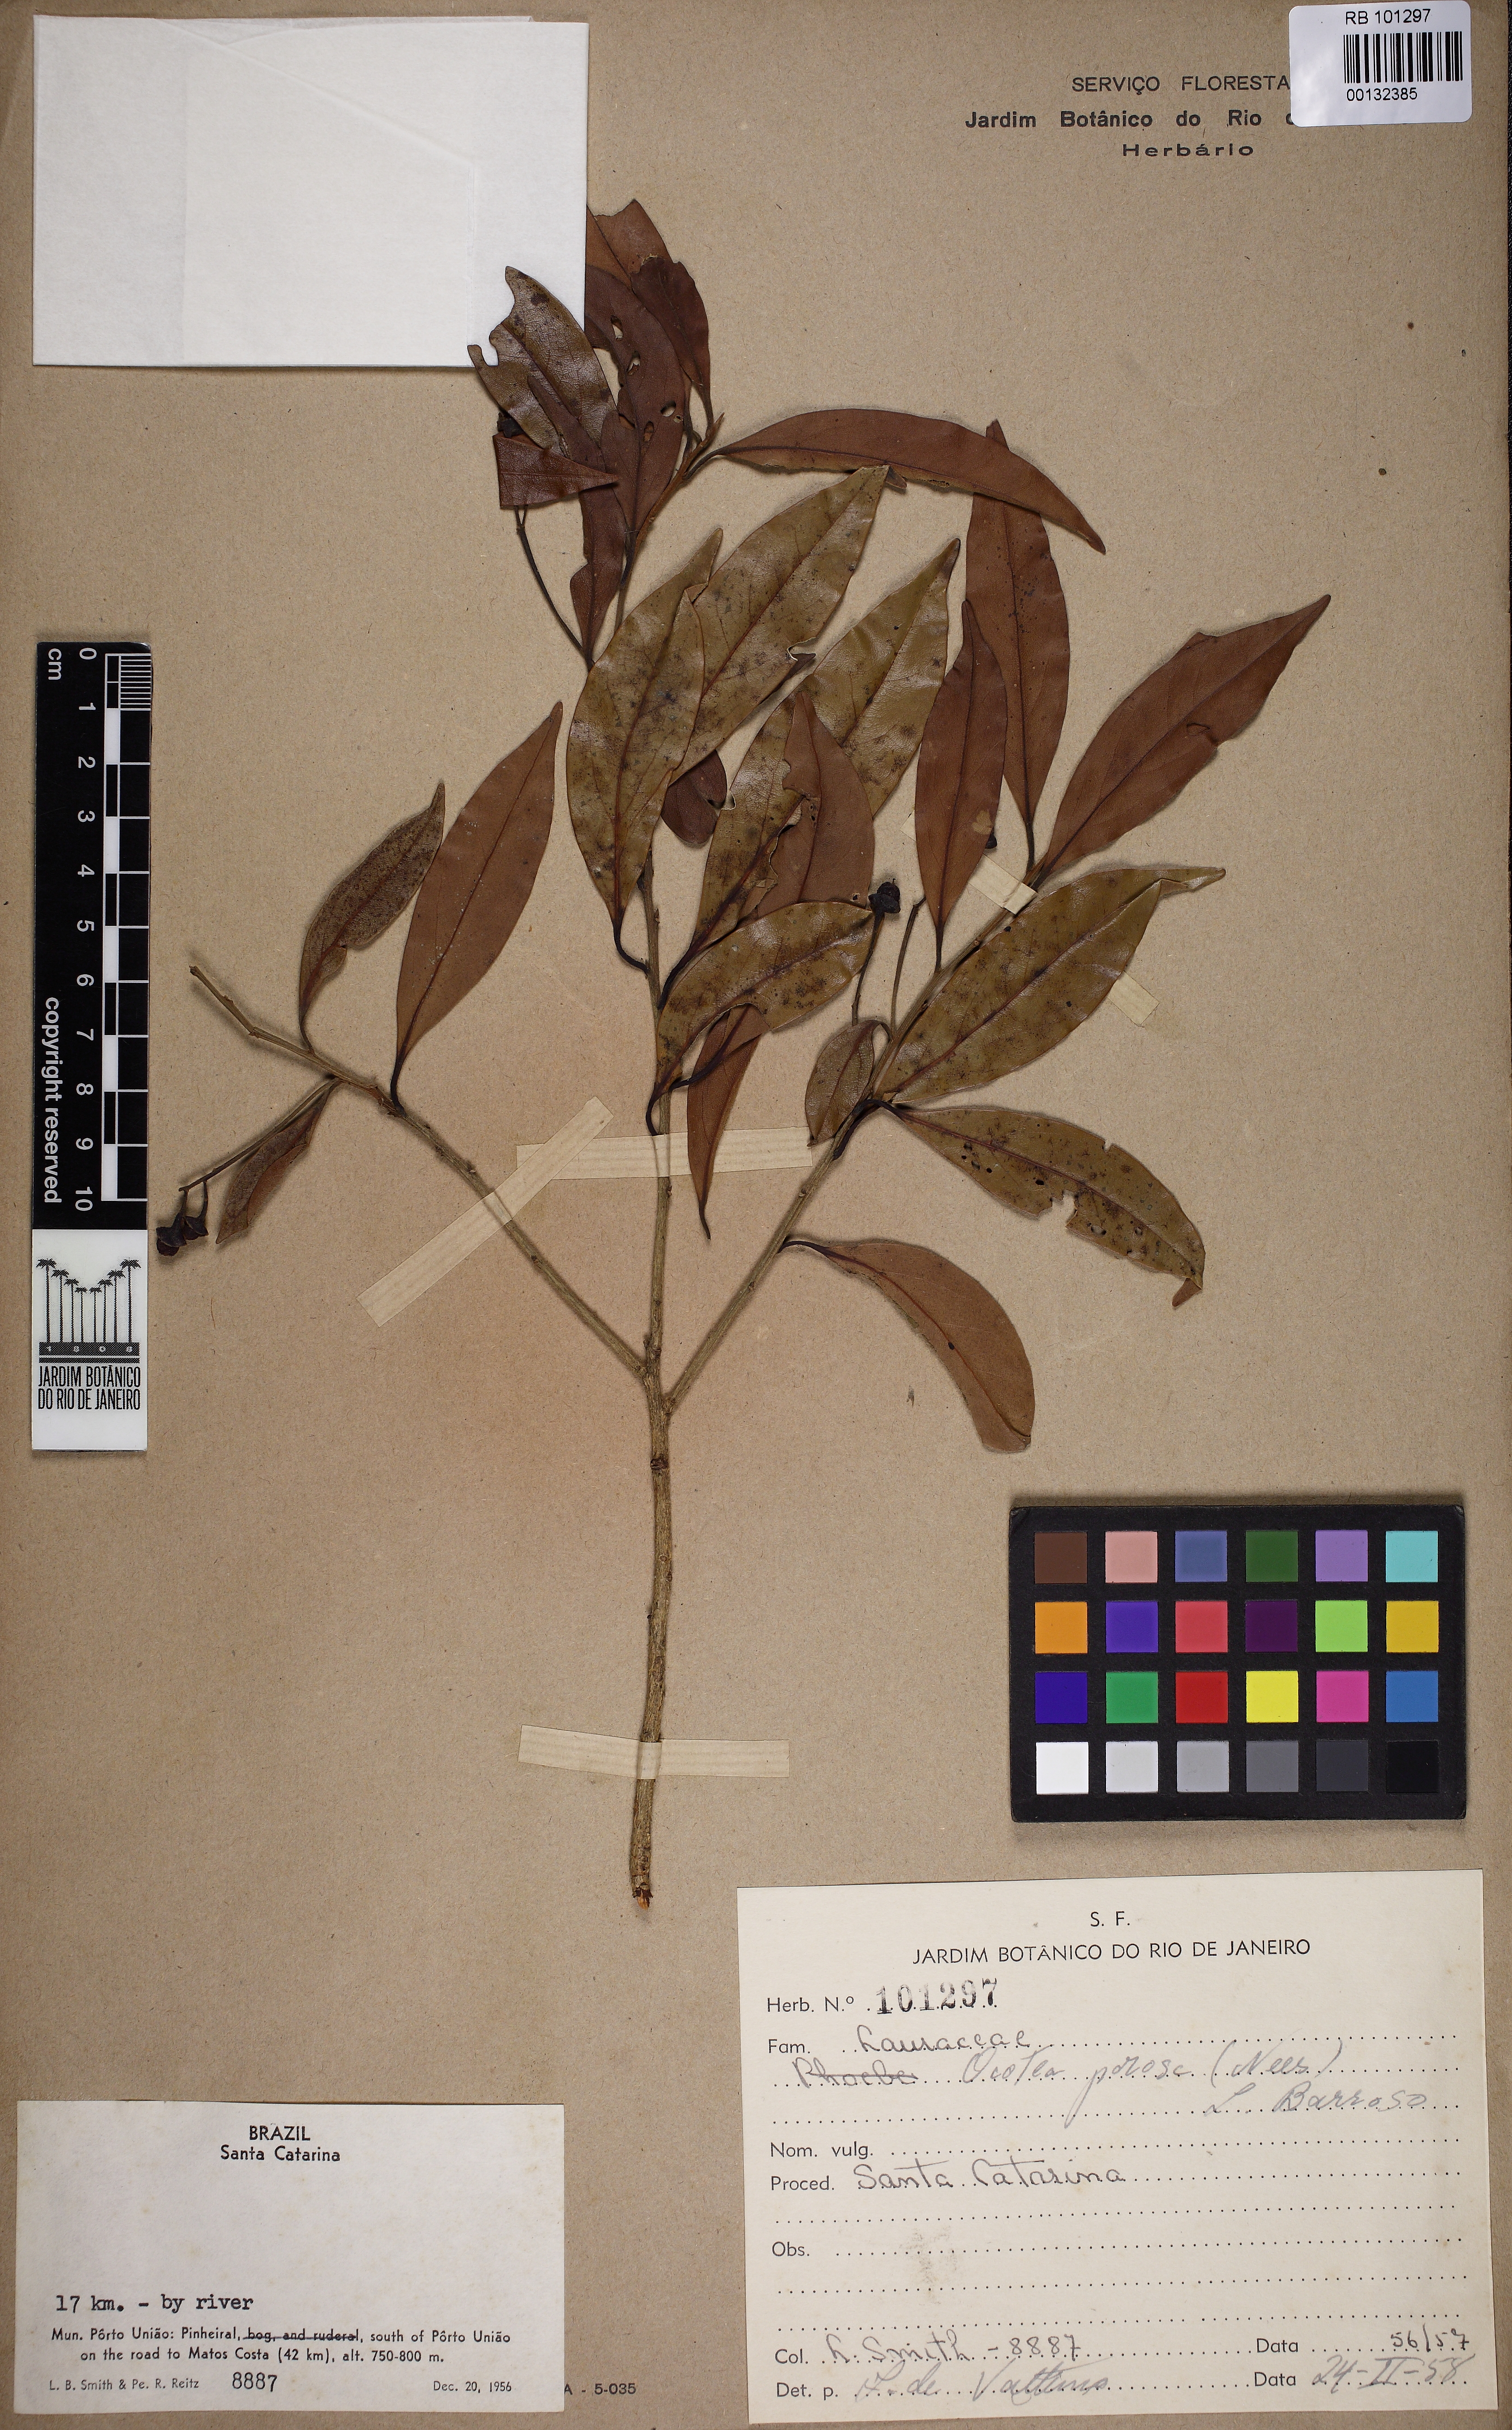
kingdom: Plantae
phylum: Tracheophyta
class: Magnoliopsida
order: Laurales
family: Lauraceae
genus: Ocotea
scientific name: Ocotea porosa
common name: Brazilian-walnut
